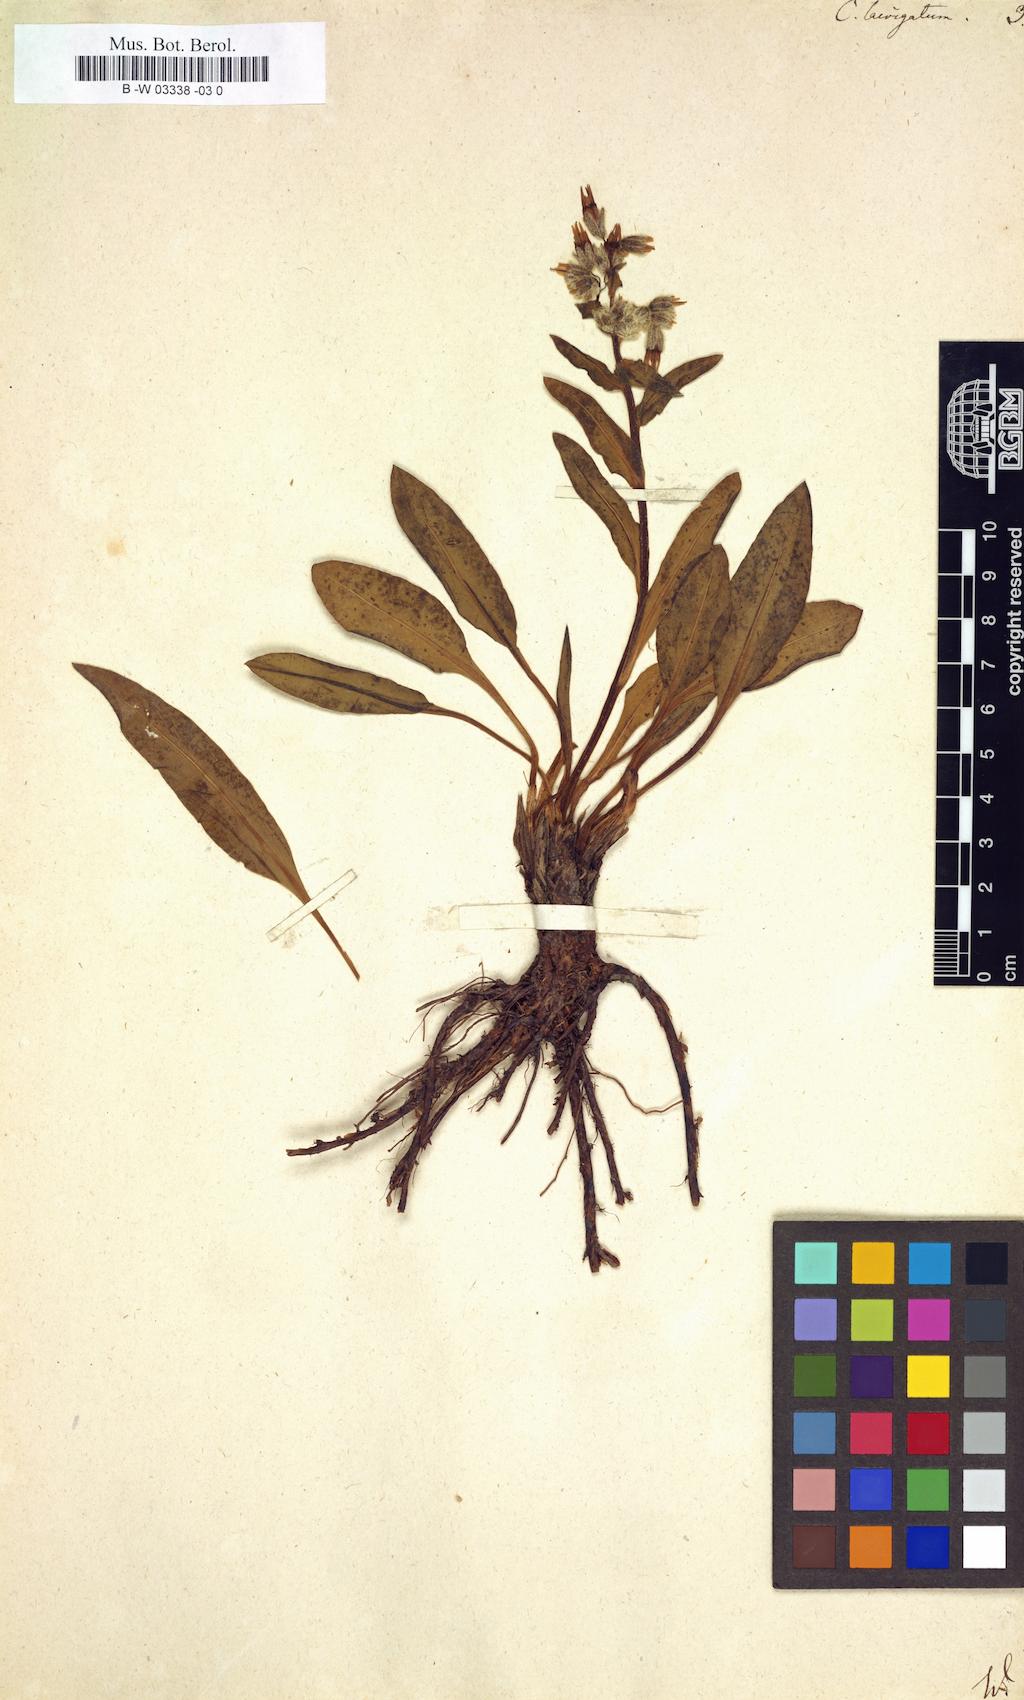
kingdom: Plantae
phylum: Tracheophyta
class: Magnoliopsida
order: Boraginales
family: Boraginaceae
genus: Rindera
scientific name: Rindera tetraspis
